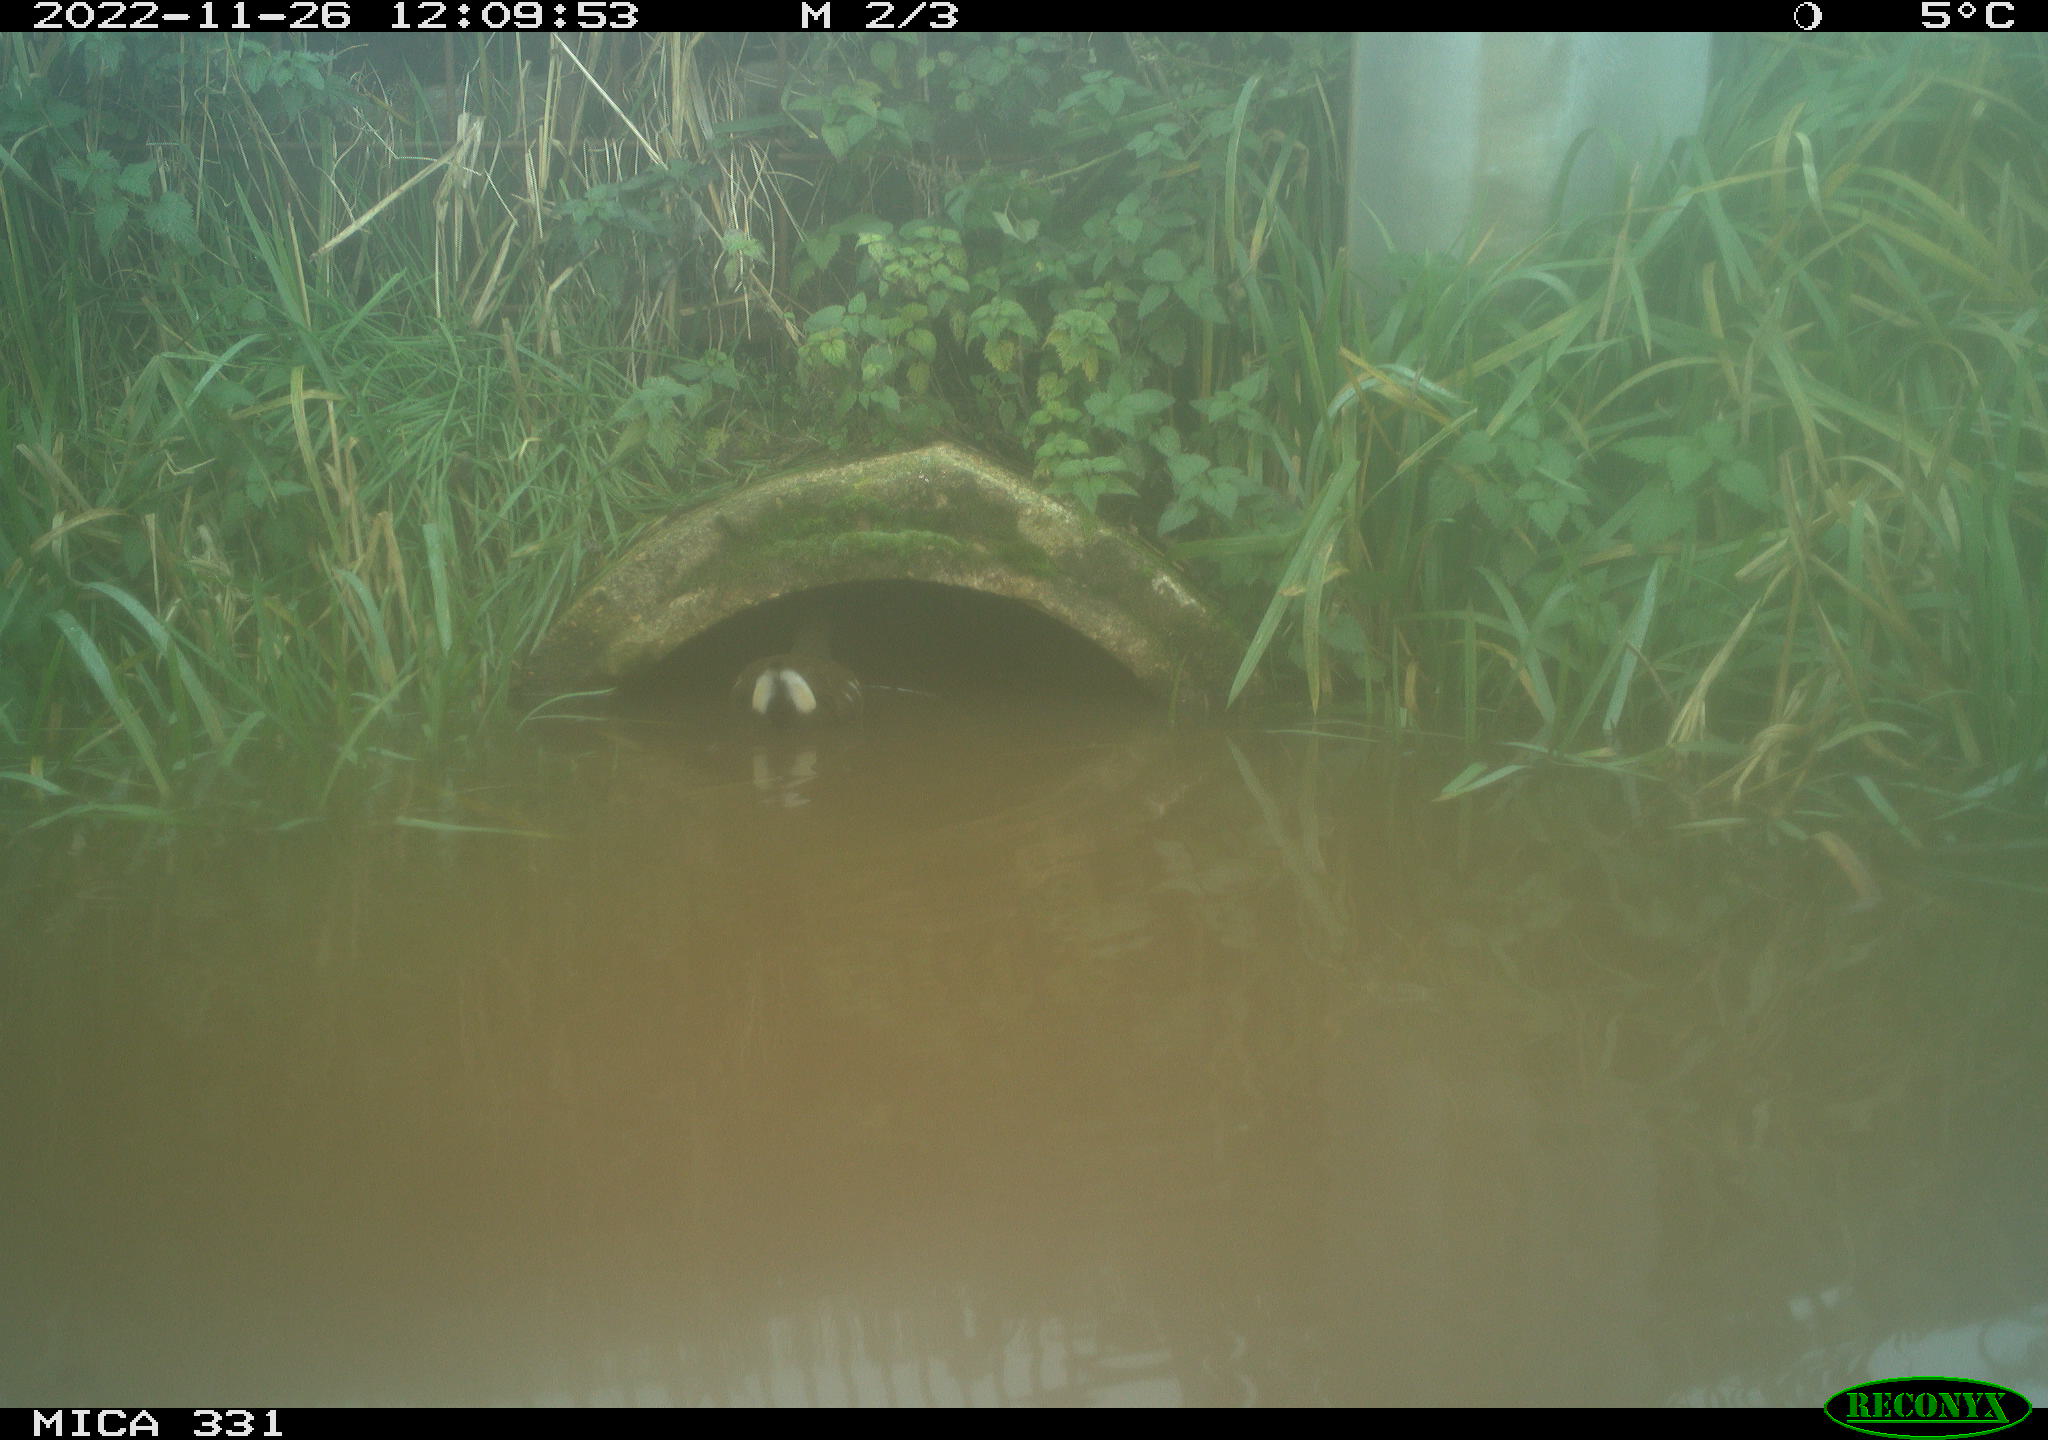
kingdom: Animalia
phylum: Chordata
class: Aves
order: Gruiformes
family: Rallidae
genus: Gallinula
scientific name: Gallinula chloropus
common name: Common moorhen
